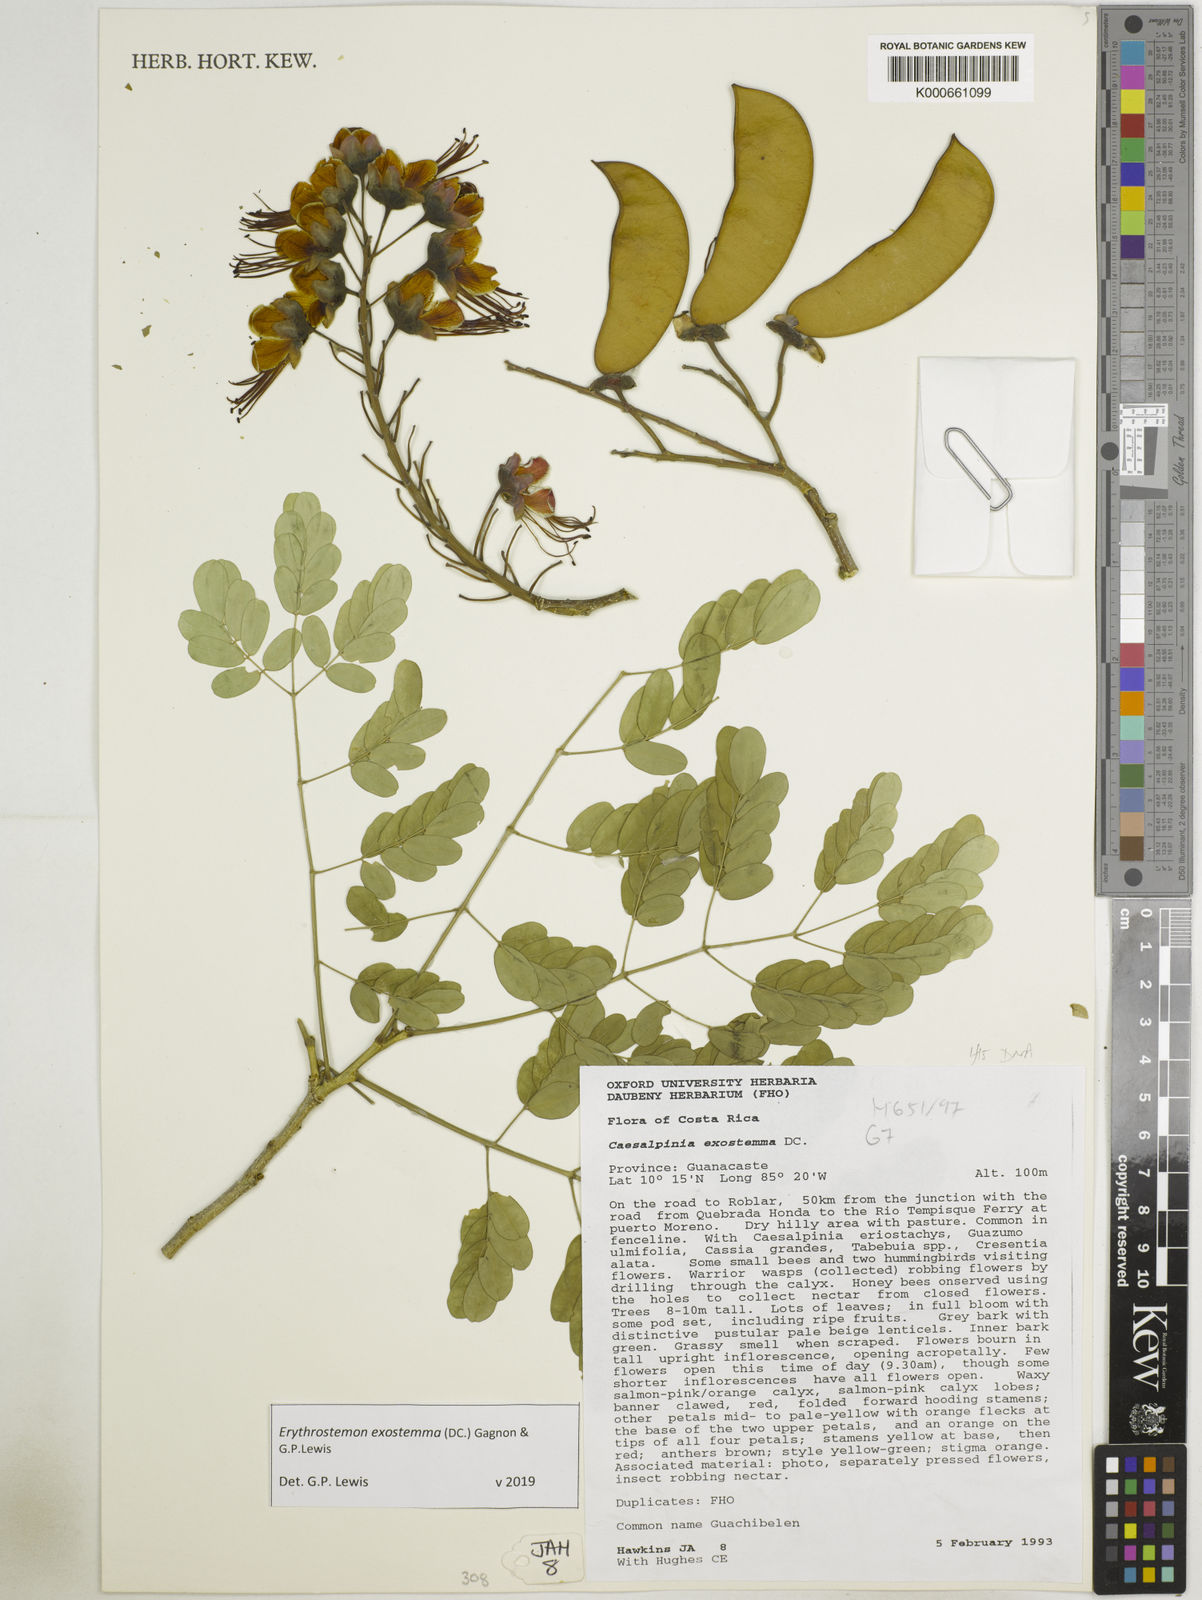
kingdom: Plantae
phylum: Tracheophyta
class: Magnoliopsida
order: Fabales
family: Fabaceae
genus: Erythrostemon
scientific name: Erythrostemon exostemma
